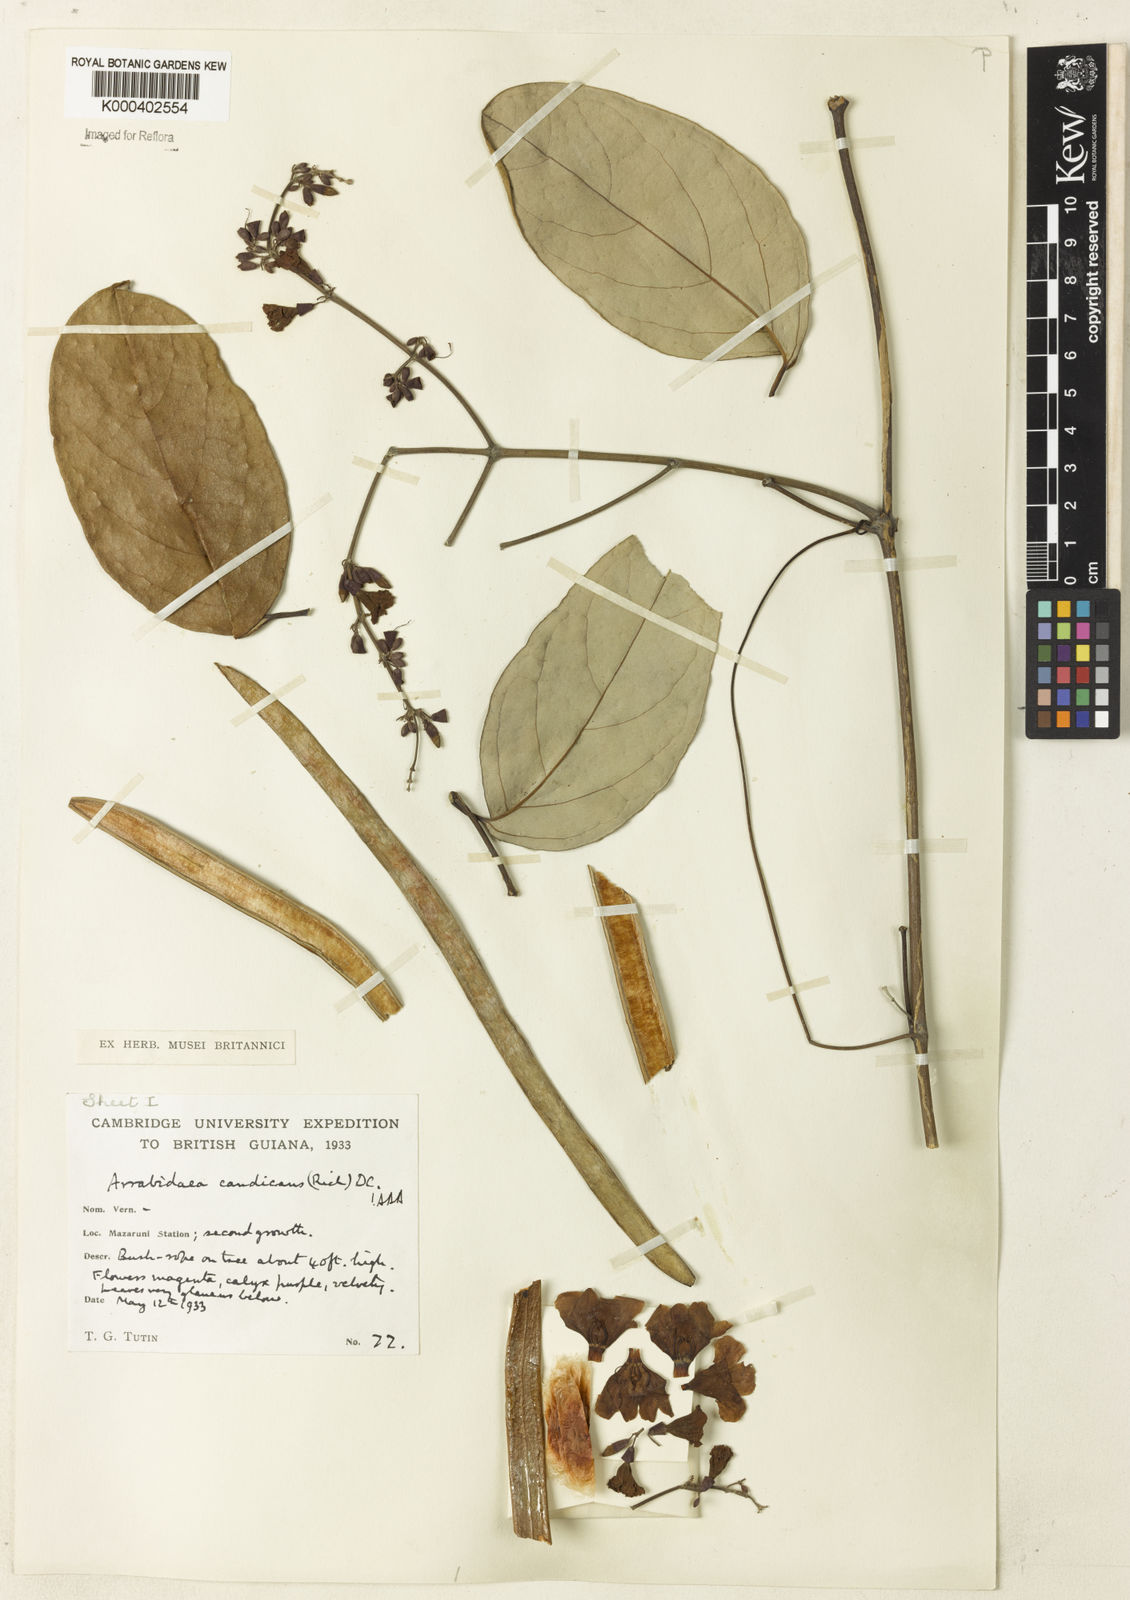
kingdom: Plantae
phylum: Tracheophyta
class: Magnoliopsida
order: Lamiales
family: Bignoniaceae
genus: Fridericia
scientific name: Fridericia candicans
